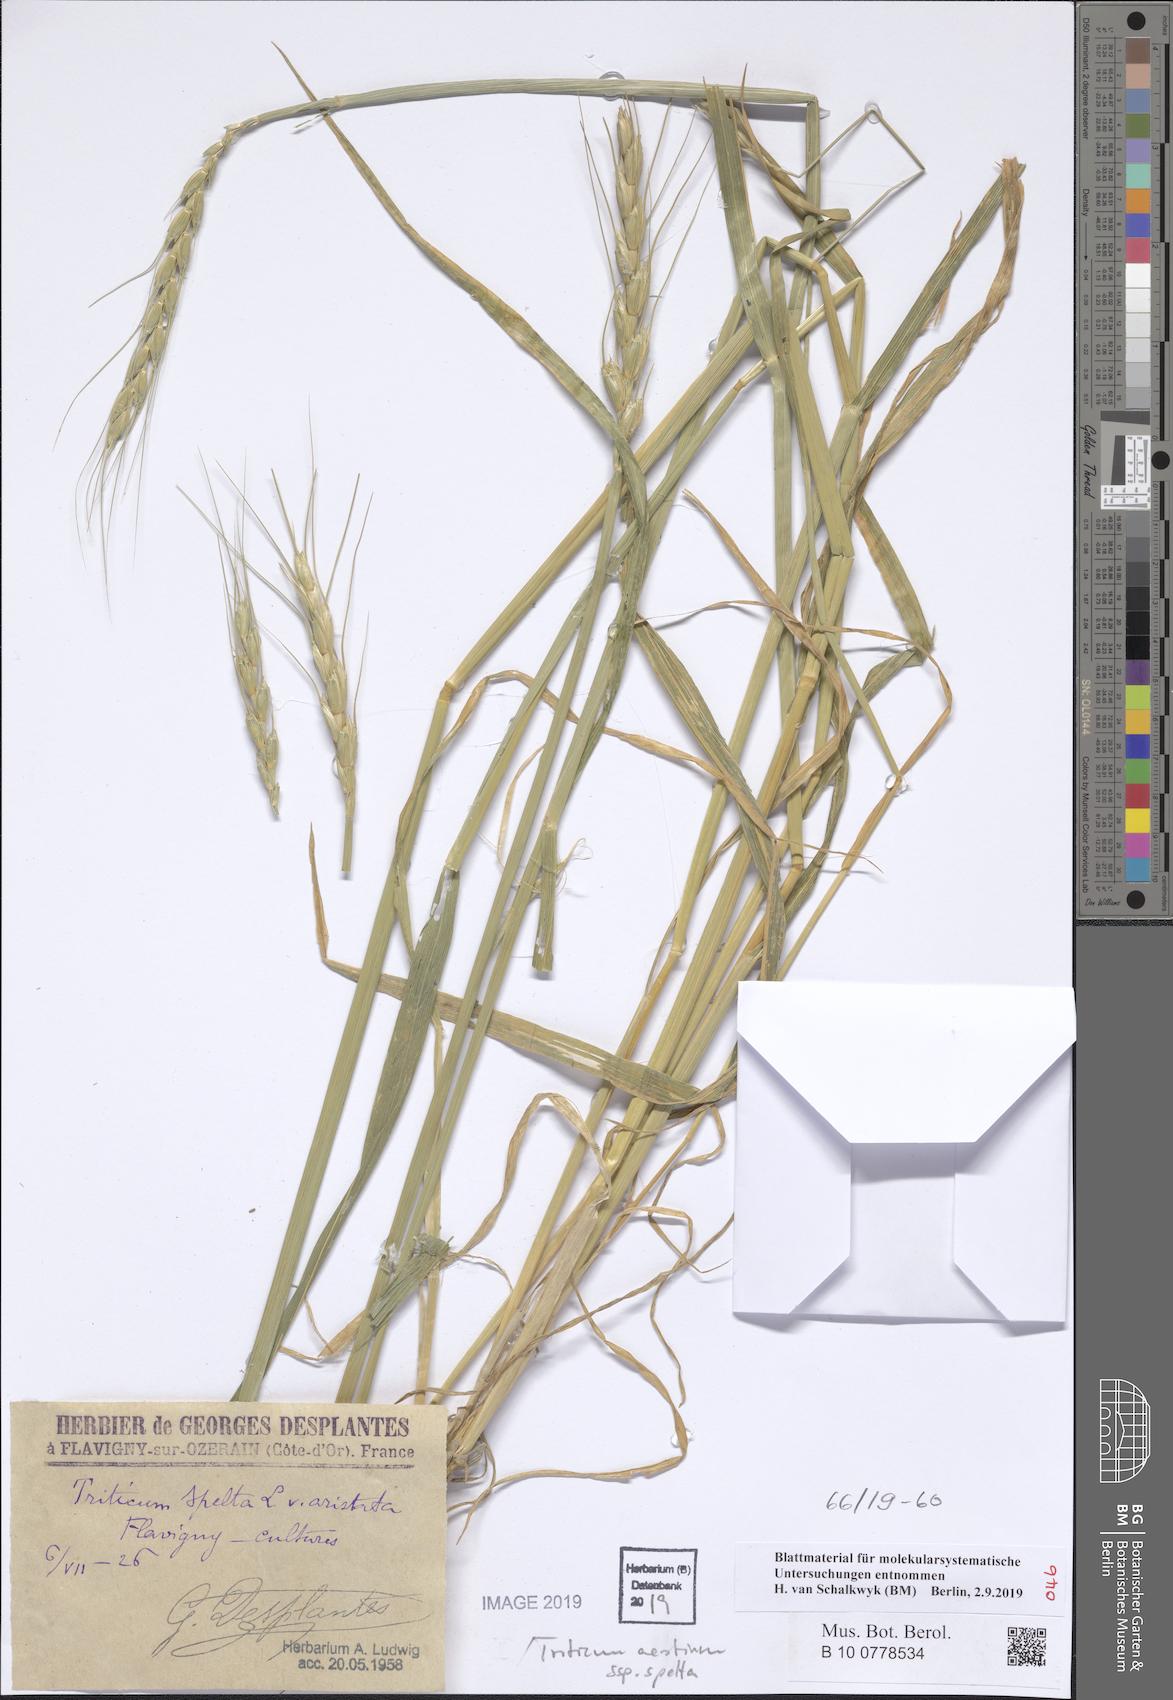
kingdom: Plantae
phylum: Tracheophyta
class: Liliopsida
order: Poales
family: Poaceae
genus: Triticum
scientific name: Triticum aestivum
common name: Common wheat
